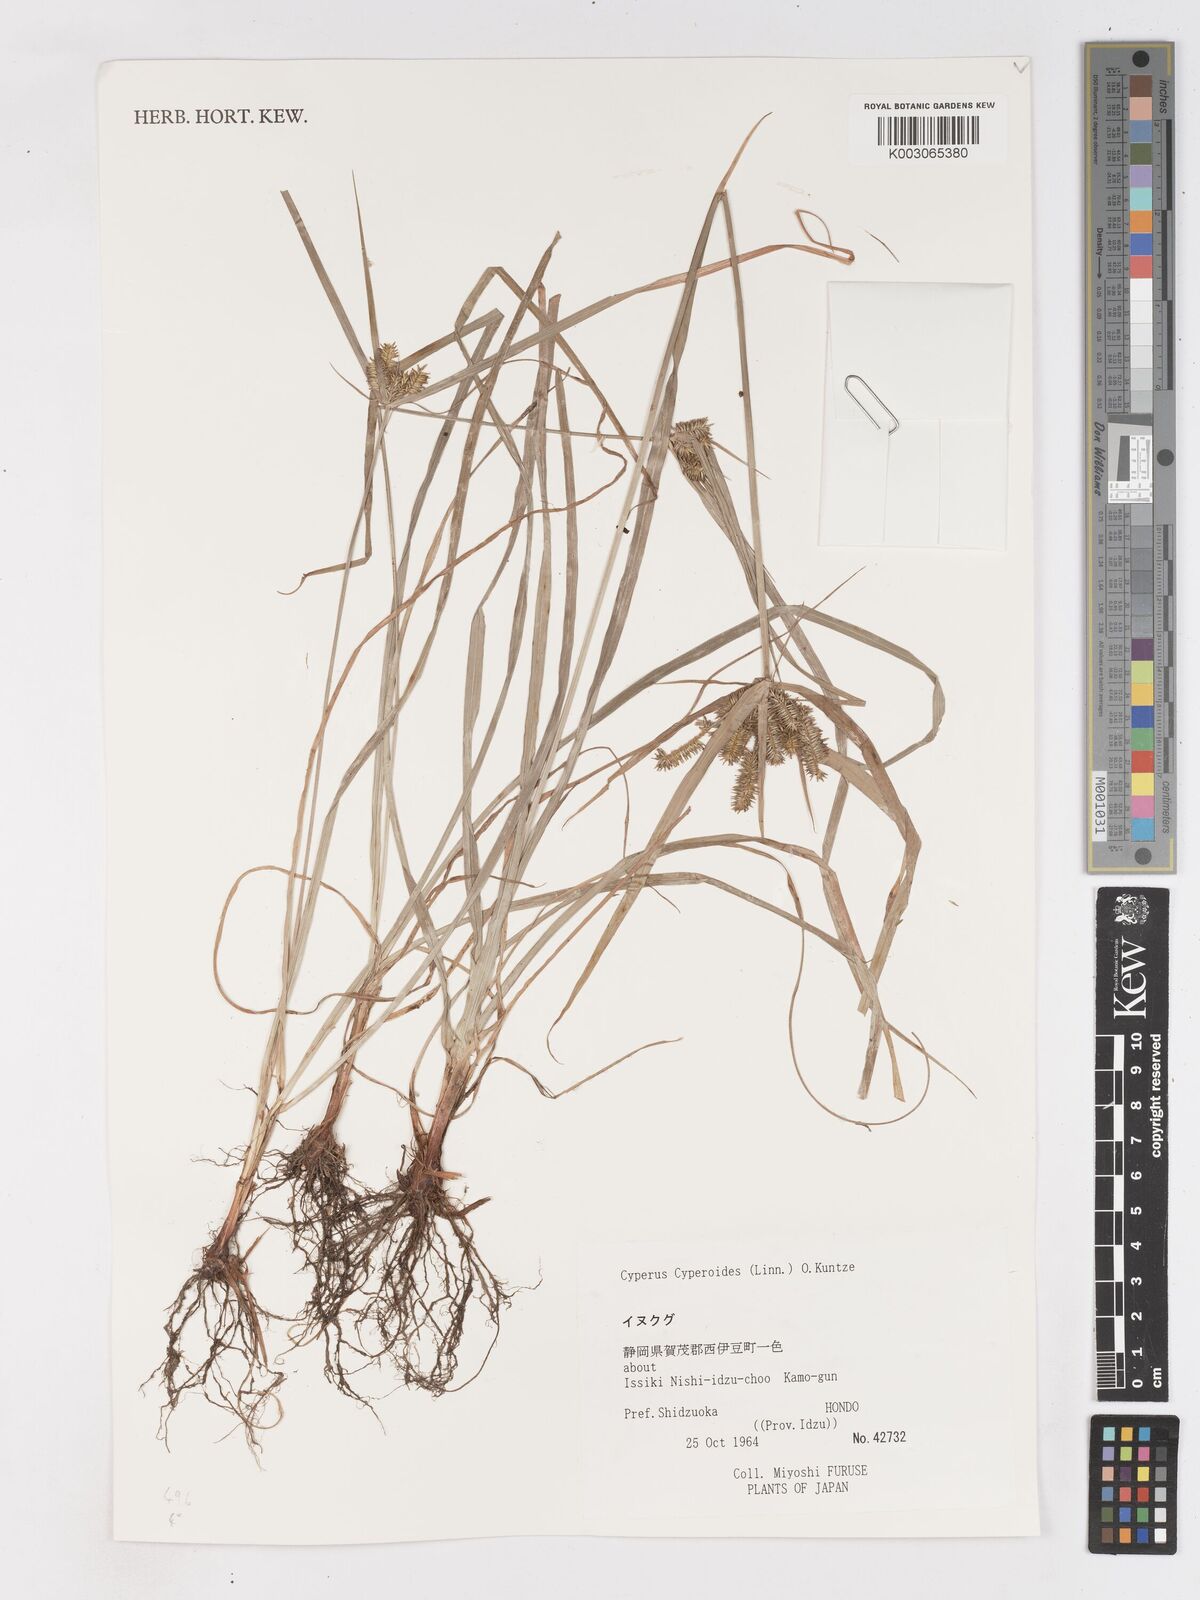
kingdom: Plantae
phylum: Tracheophyta
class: Liliopsida
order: Poales
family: Cyperaceae
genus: Cyperus
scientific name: Cyperus cyperoides
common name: Pacific island flat sedge
